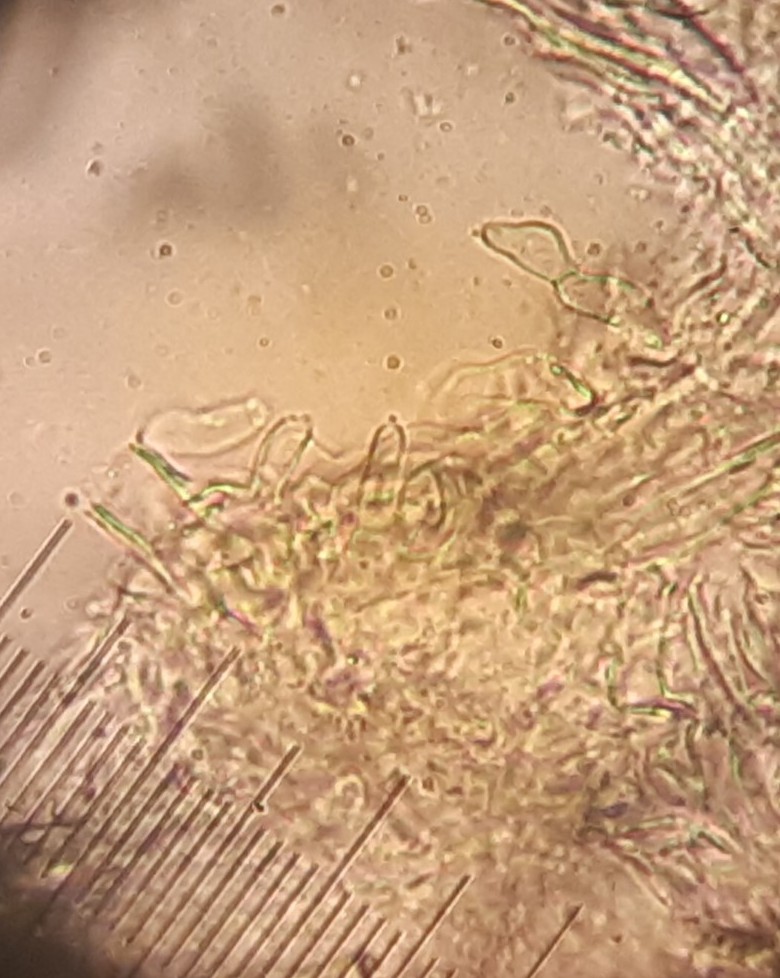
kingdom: Fungi
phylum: Basidiomycota
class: Agaricomycetes
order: Agaricales
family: Typhulaceae
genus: Sclerotium
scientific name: Sclerotium
